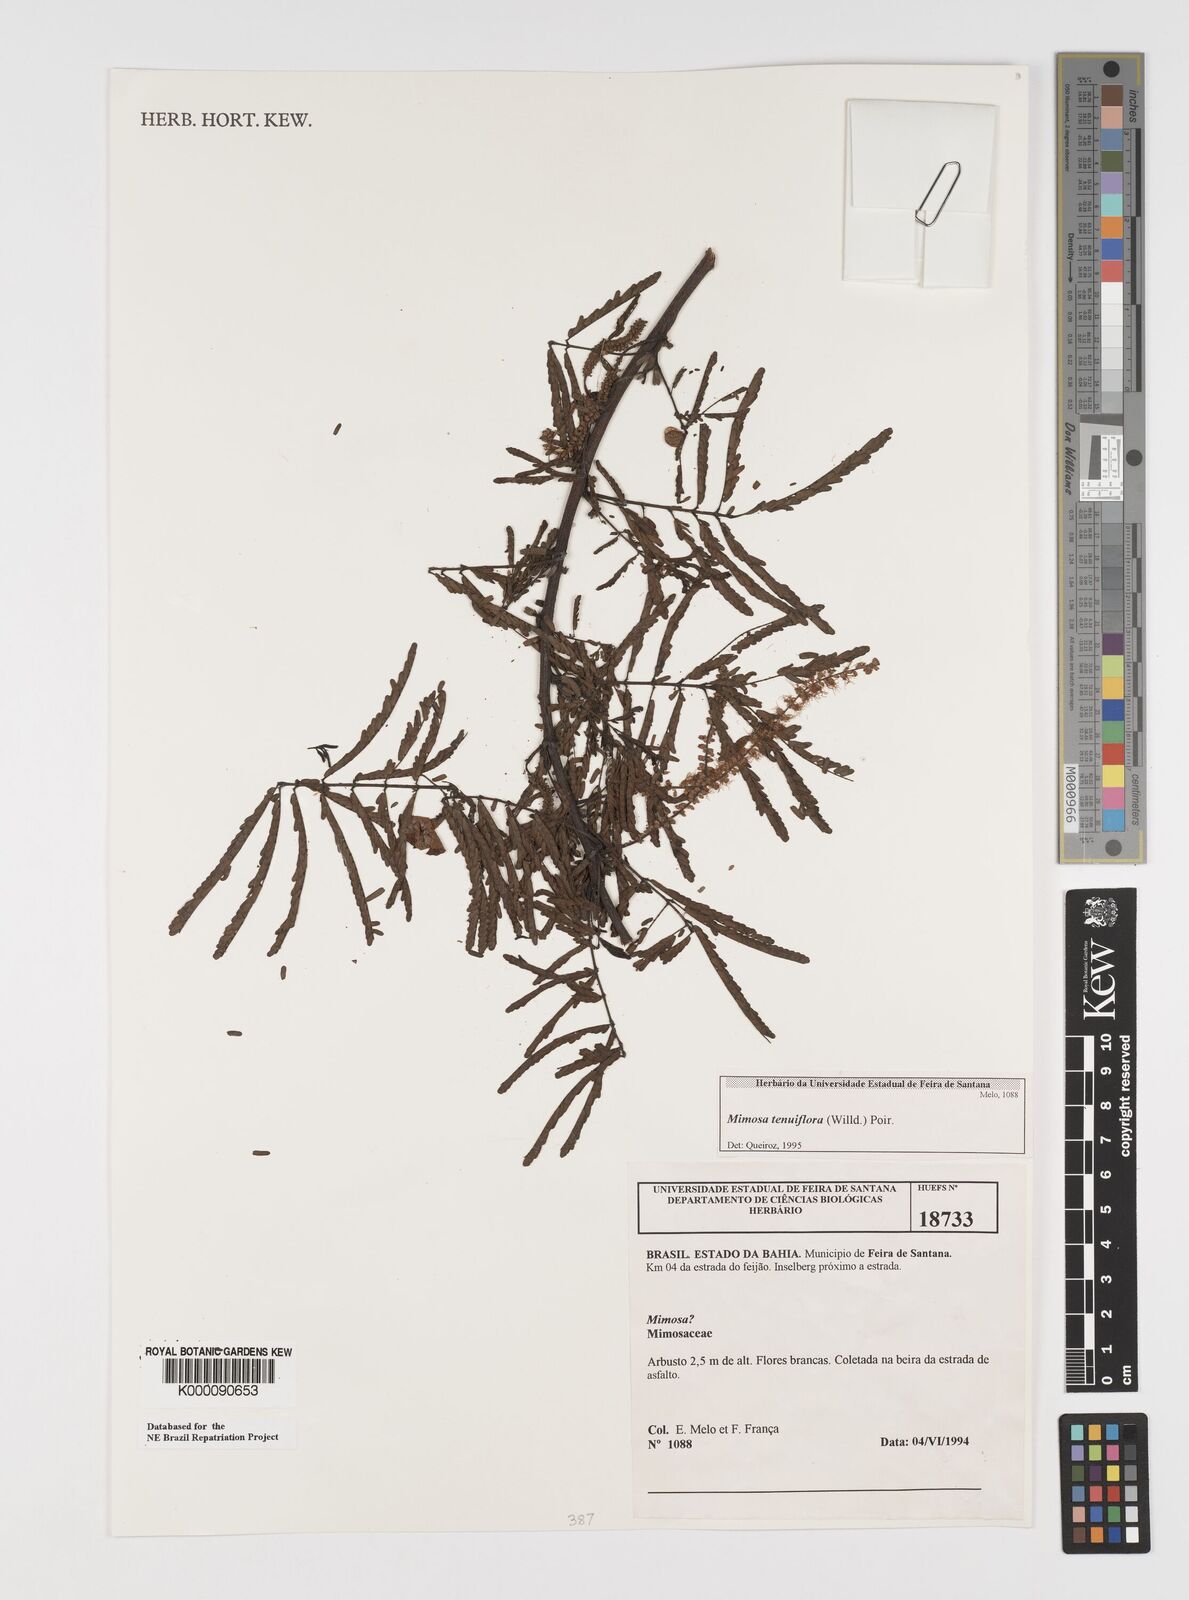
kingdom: Plantae
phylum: Tracheophyta
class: Magnoliopsida
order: Fabales
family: Fabaceae
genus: Mimosa
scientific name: Mimosa tenuiflora
